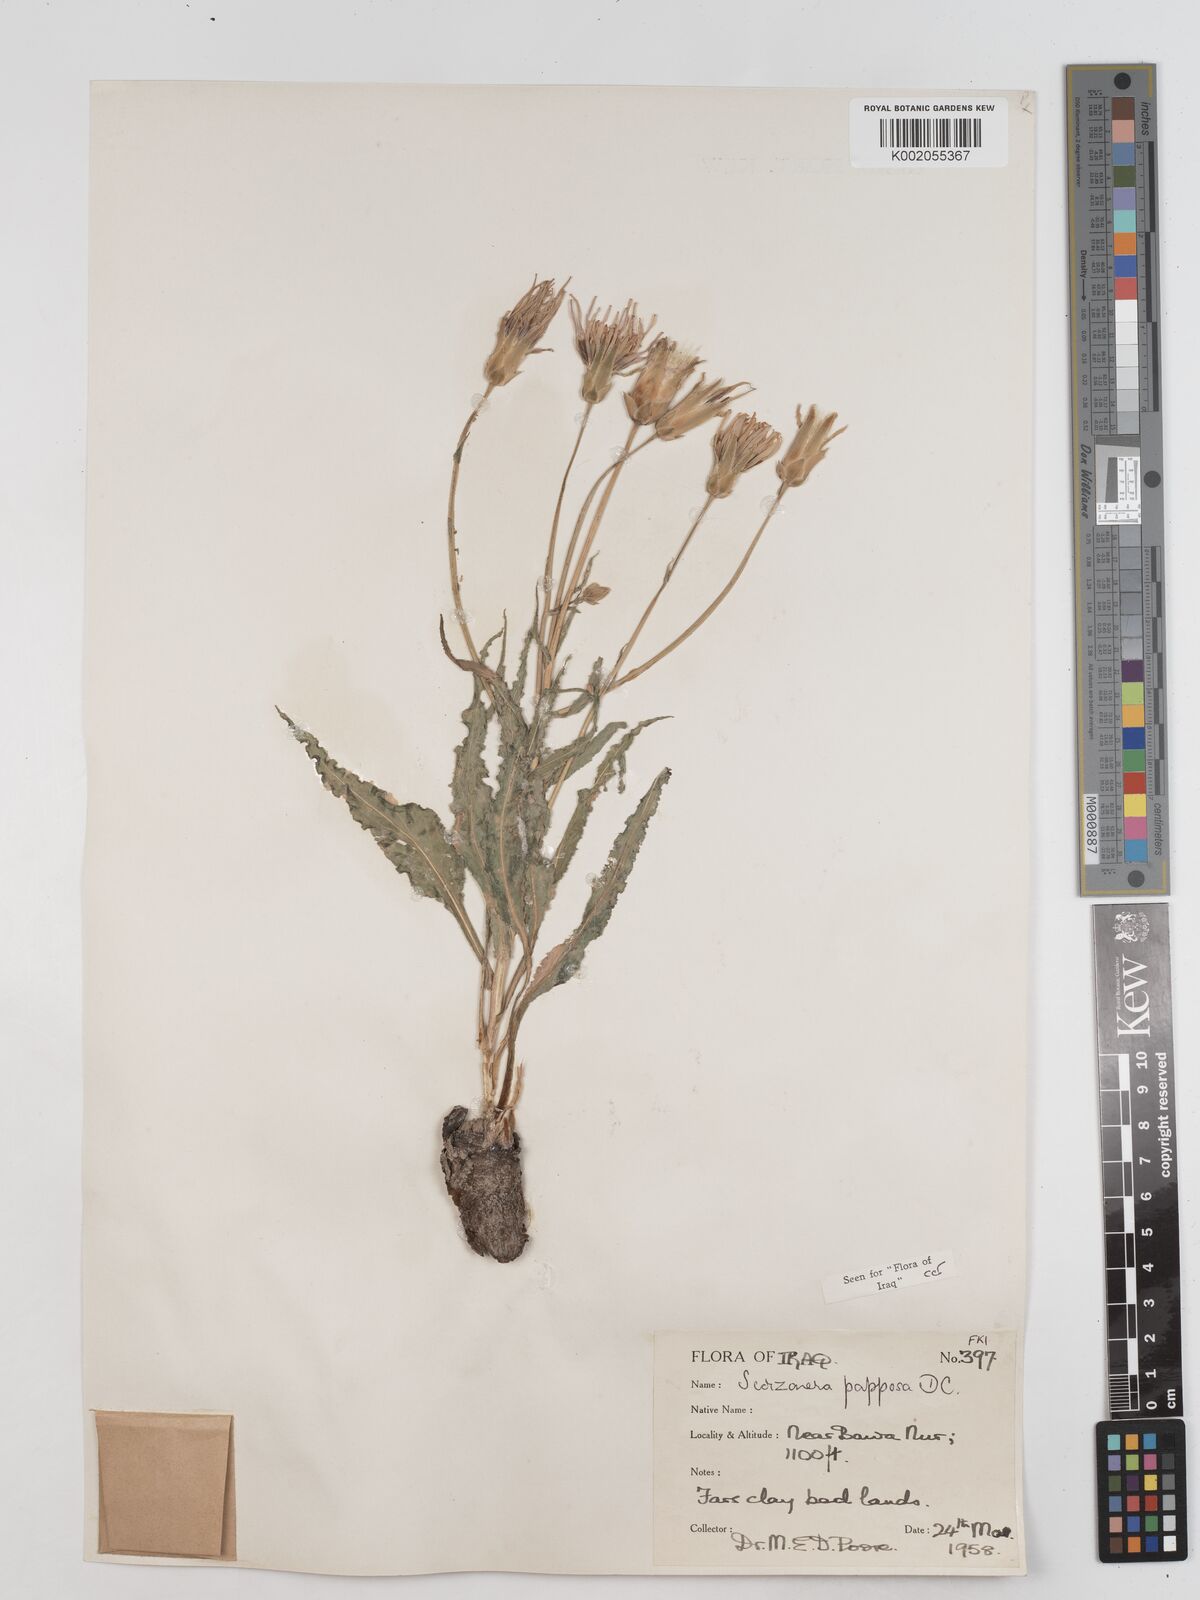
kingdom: Plantae
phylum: Tracheophyta
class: Magnoliopsida
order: Asterales
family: Asteraceae
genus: Pseudopodospermum
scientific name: Pseudopodospermum papposum
